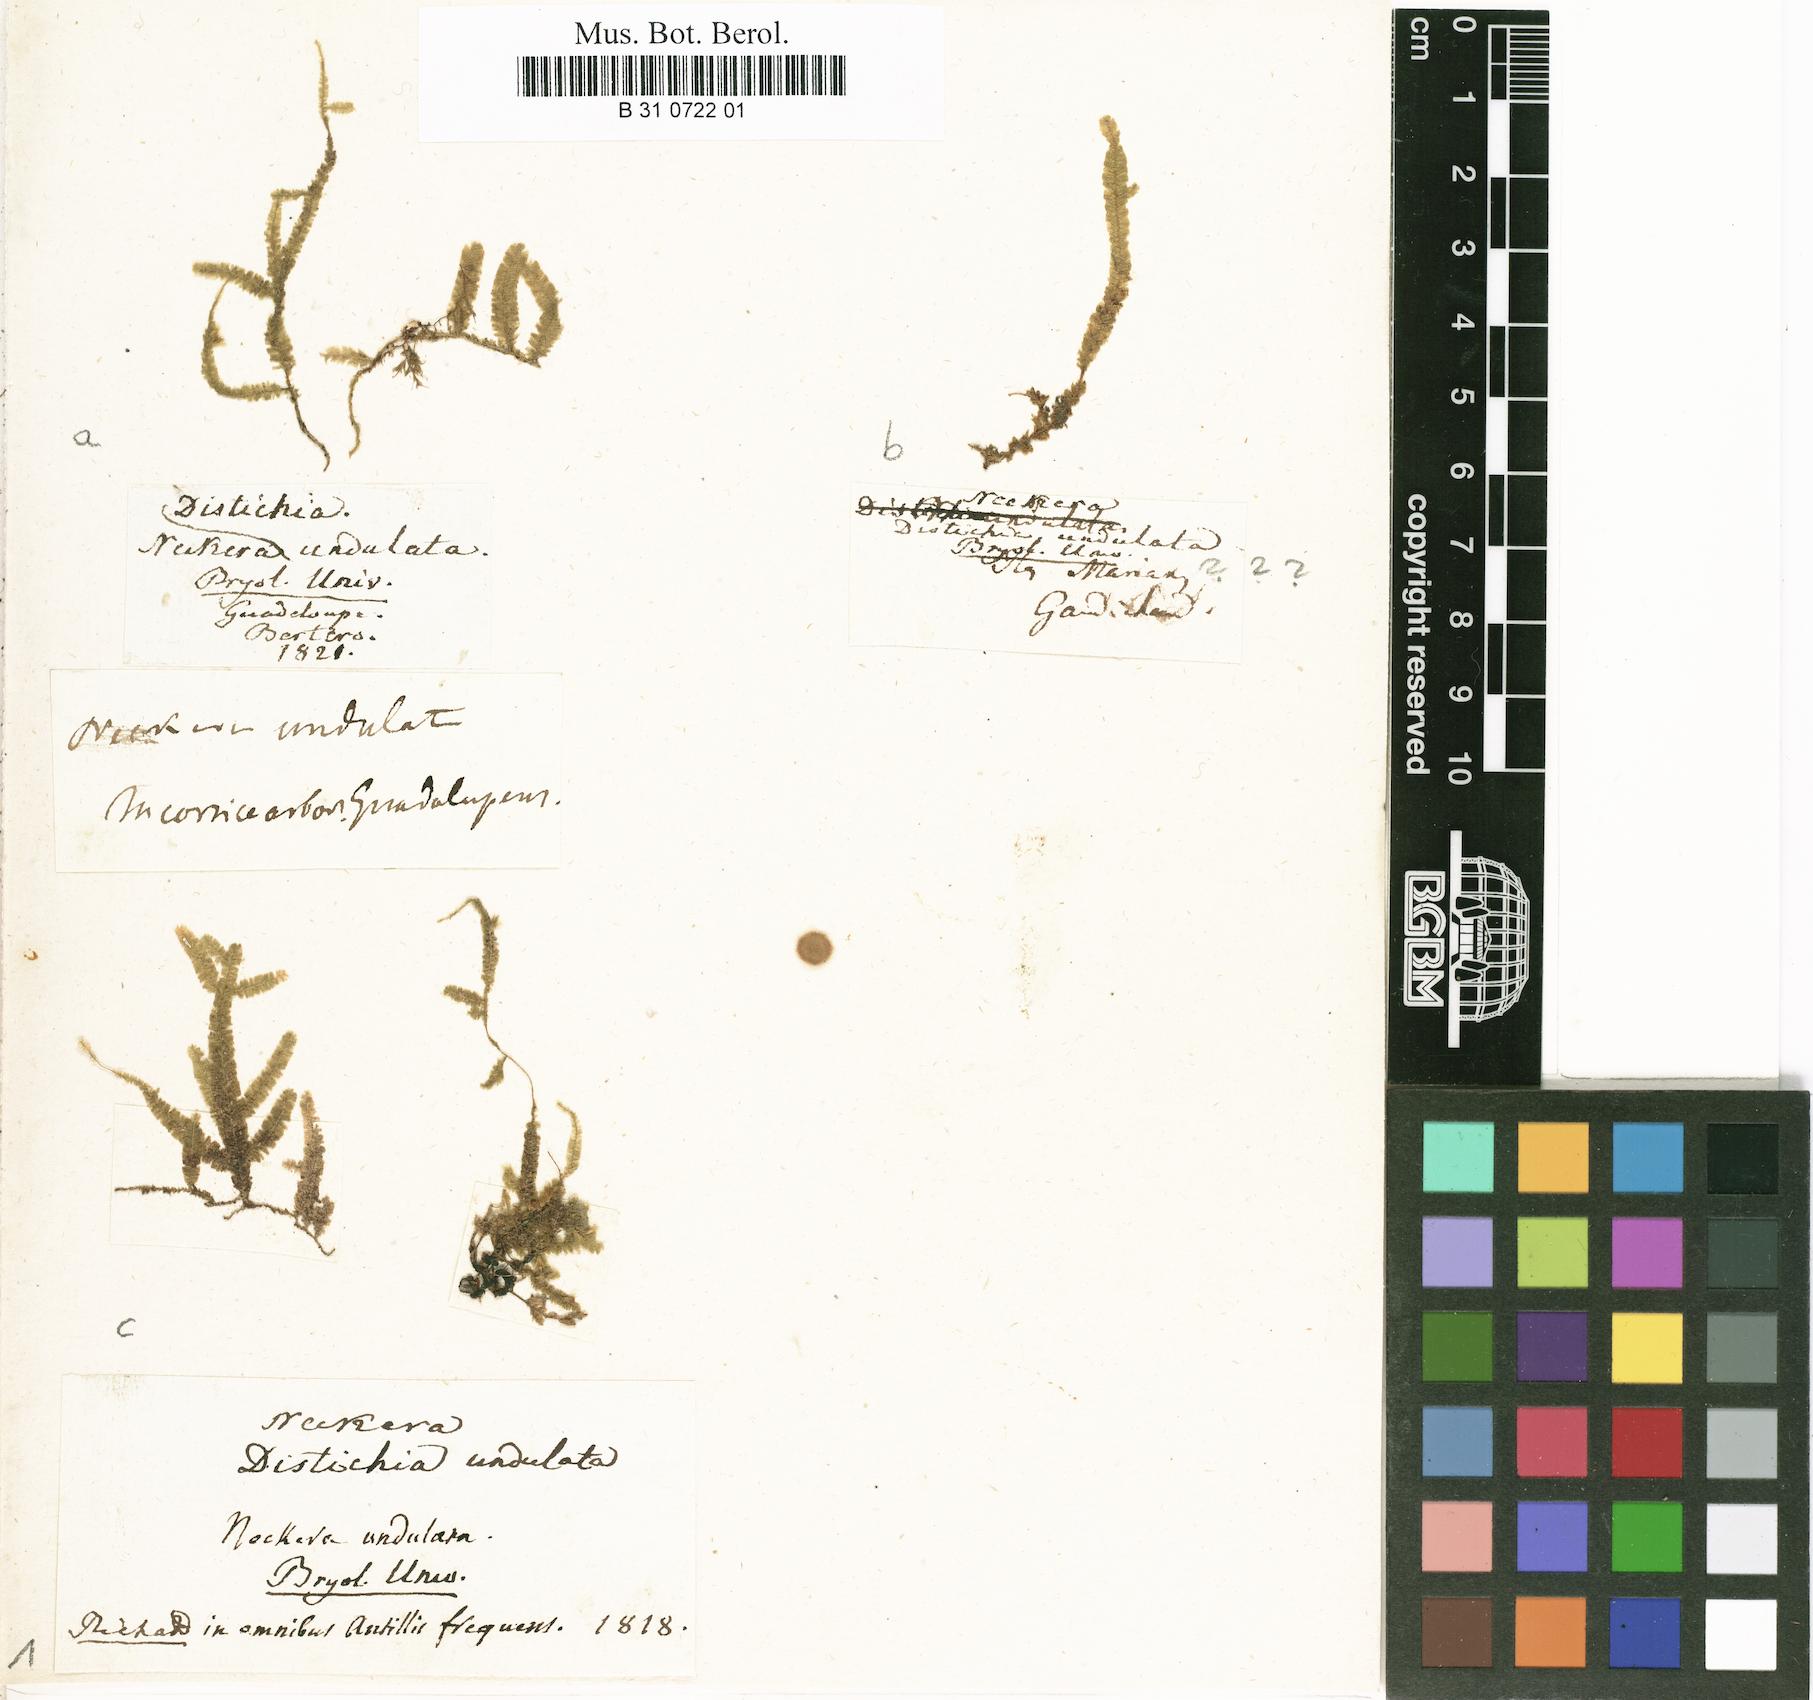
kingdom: Plantae
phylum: Bryophyta
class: Bryopsida
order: Hypnales
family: Neckeraceae
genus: Neckeropsis
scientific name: Neckeropsis undulata
